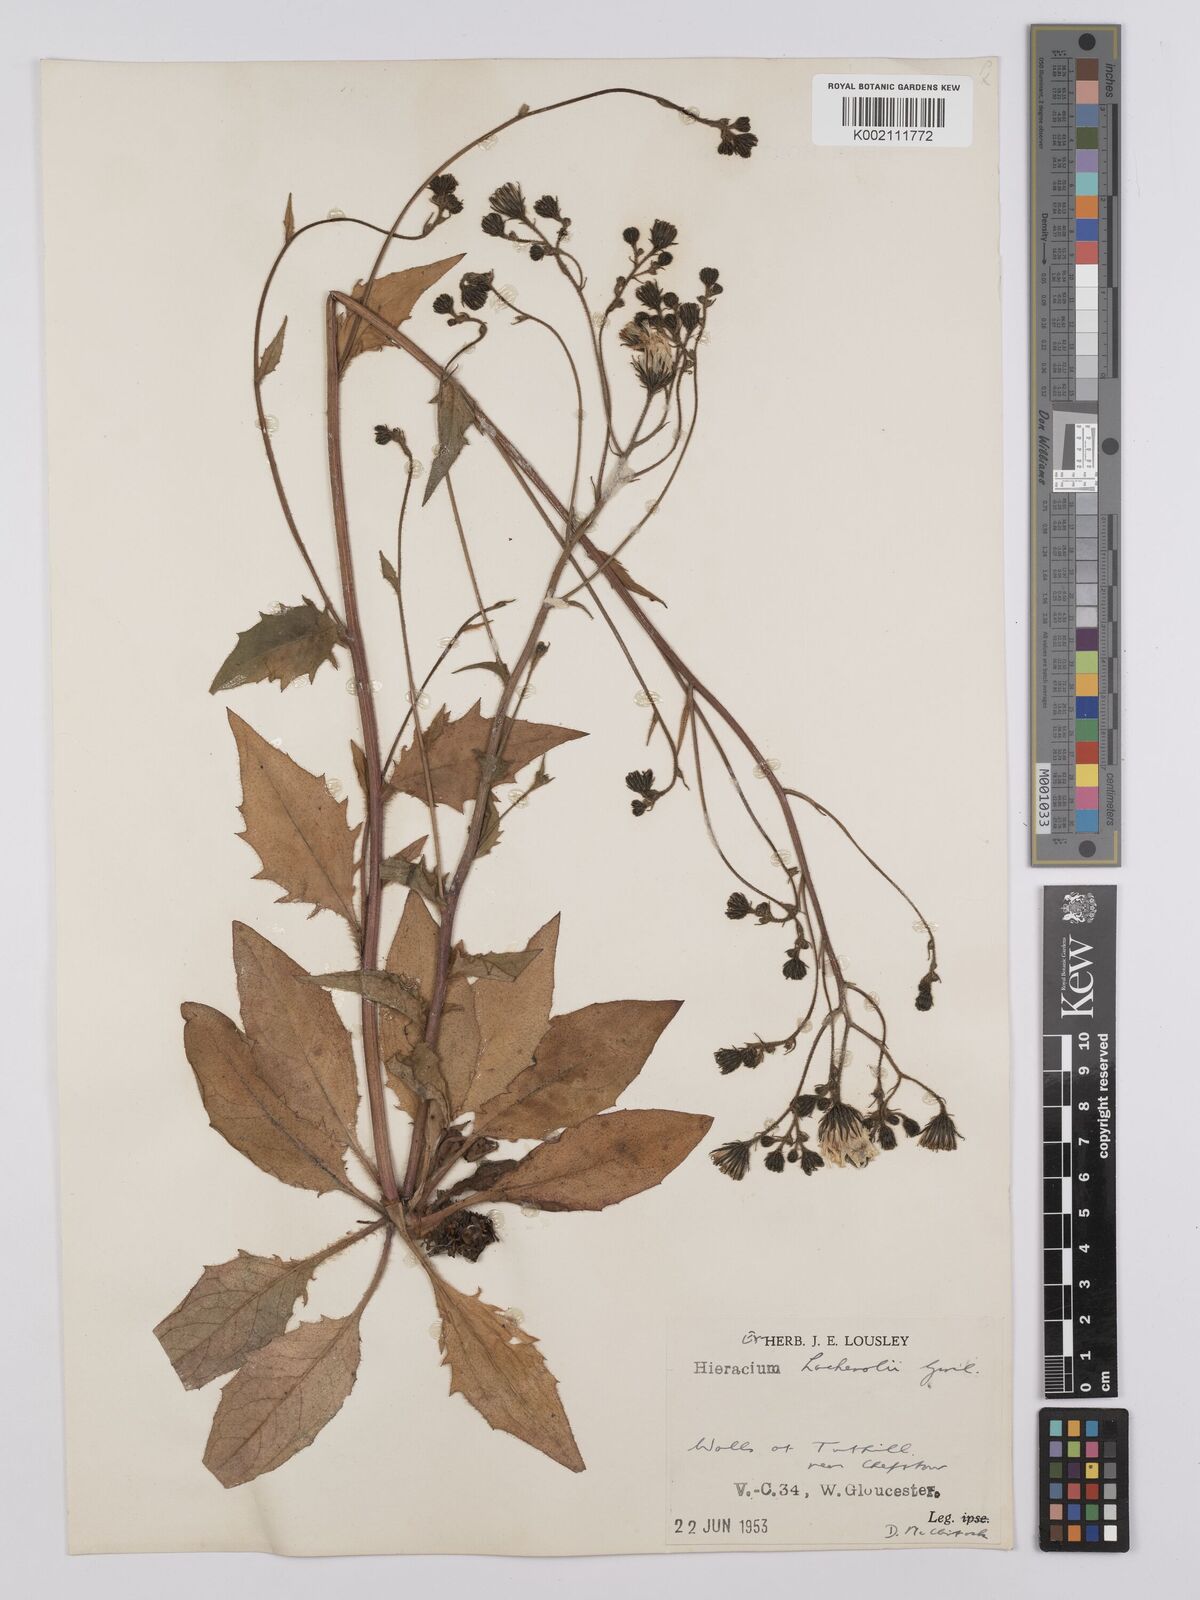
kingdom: Plantae
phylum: Tracheophyta
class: Magnoliopsida
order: Asterales
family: Asteraceae
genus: Hieracium
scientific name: Hieracium lachenalii
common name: Common hawkweed
